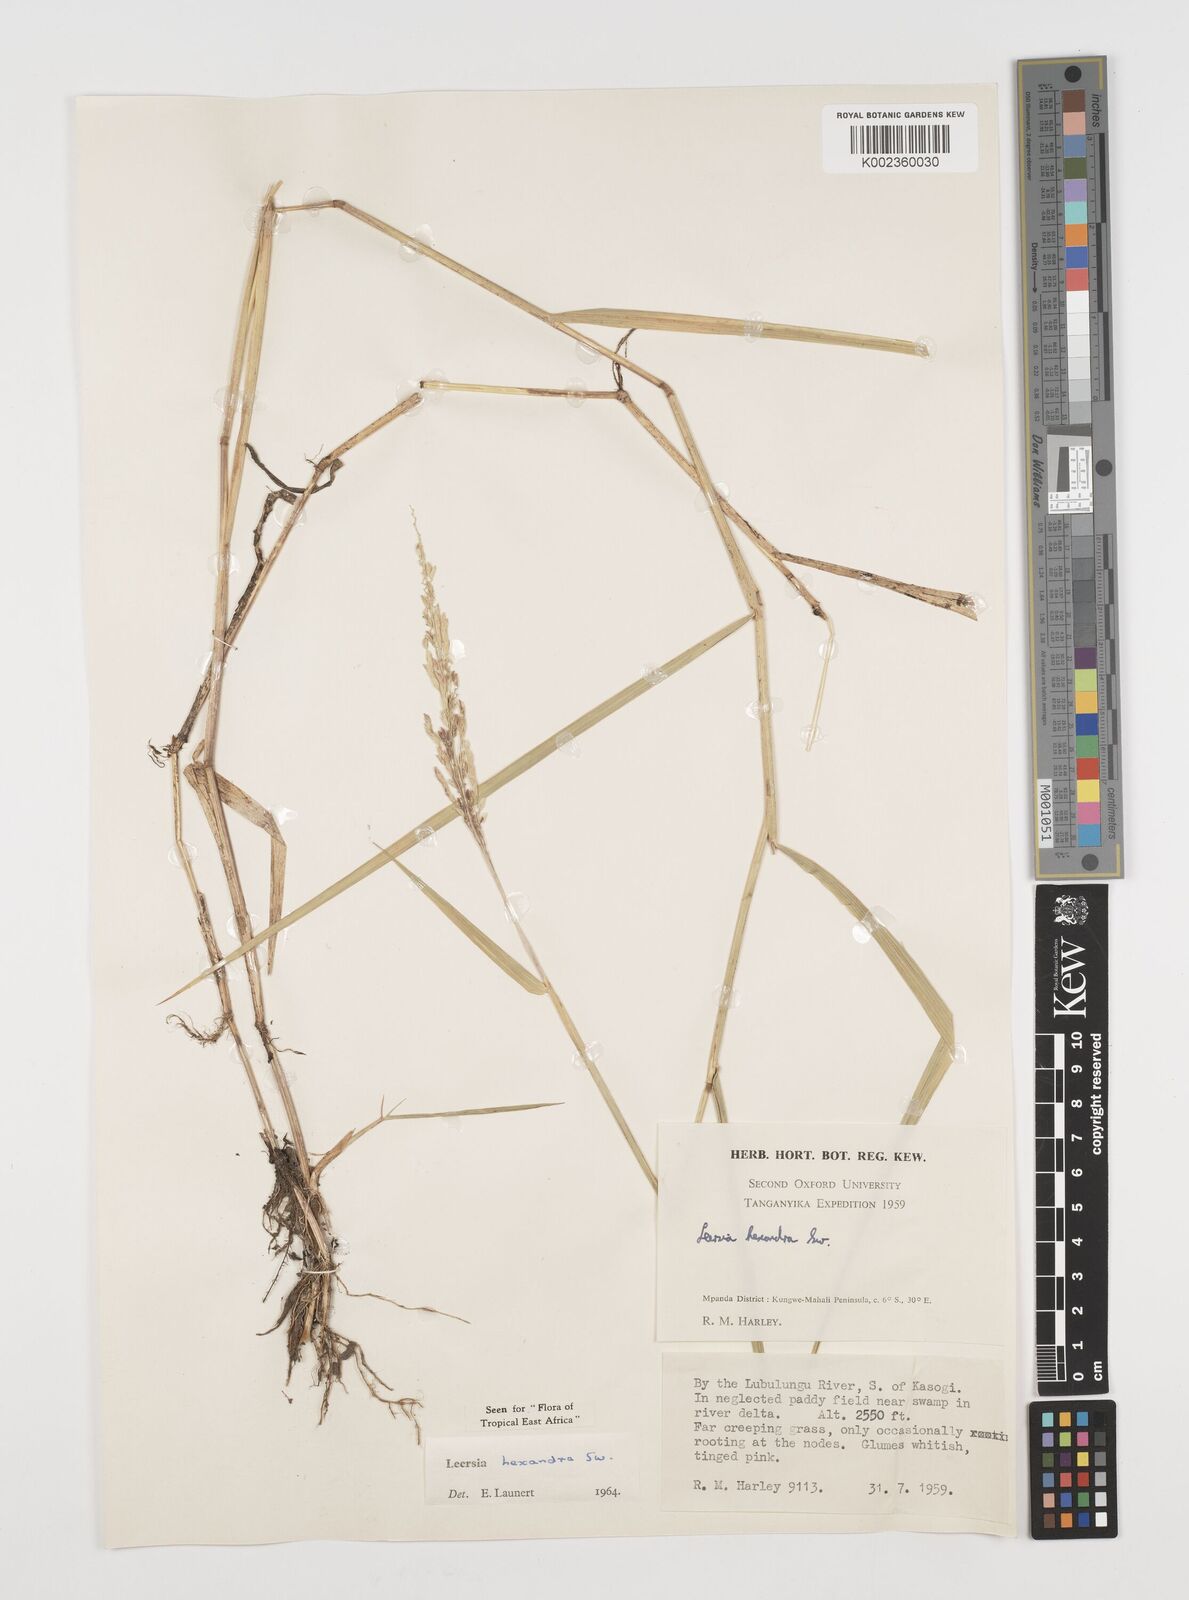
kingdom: Plantae
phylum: Tracheophyta
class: Liliopsida
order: Poales
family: Poaceae
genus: Leersia
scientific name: Leersia hexandra
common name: Southern cut grass
